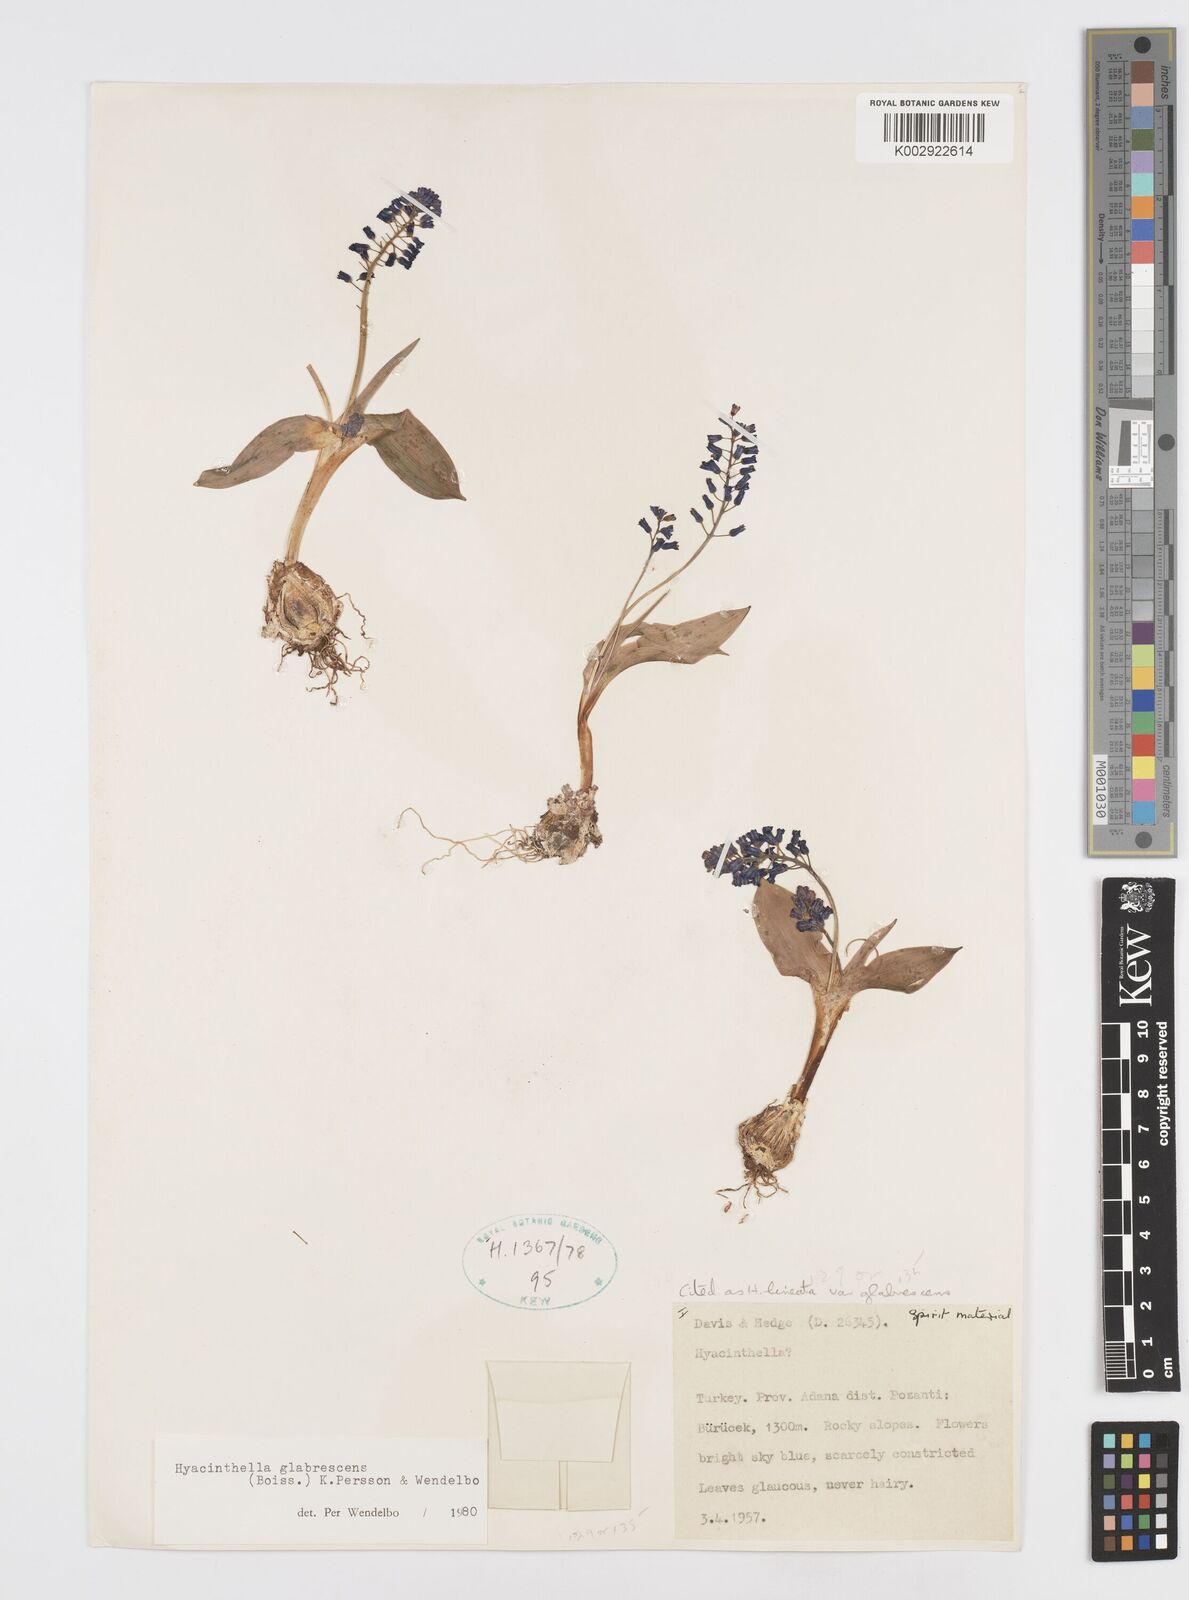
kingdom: Plantae
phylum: Tracheophyta
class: Liliopsida
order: Asparagales
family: Asparagaceae
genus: Hyacinthella
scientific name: Hyacinthella glabrescens
